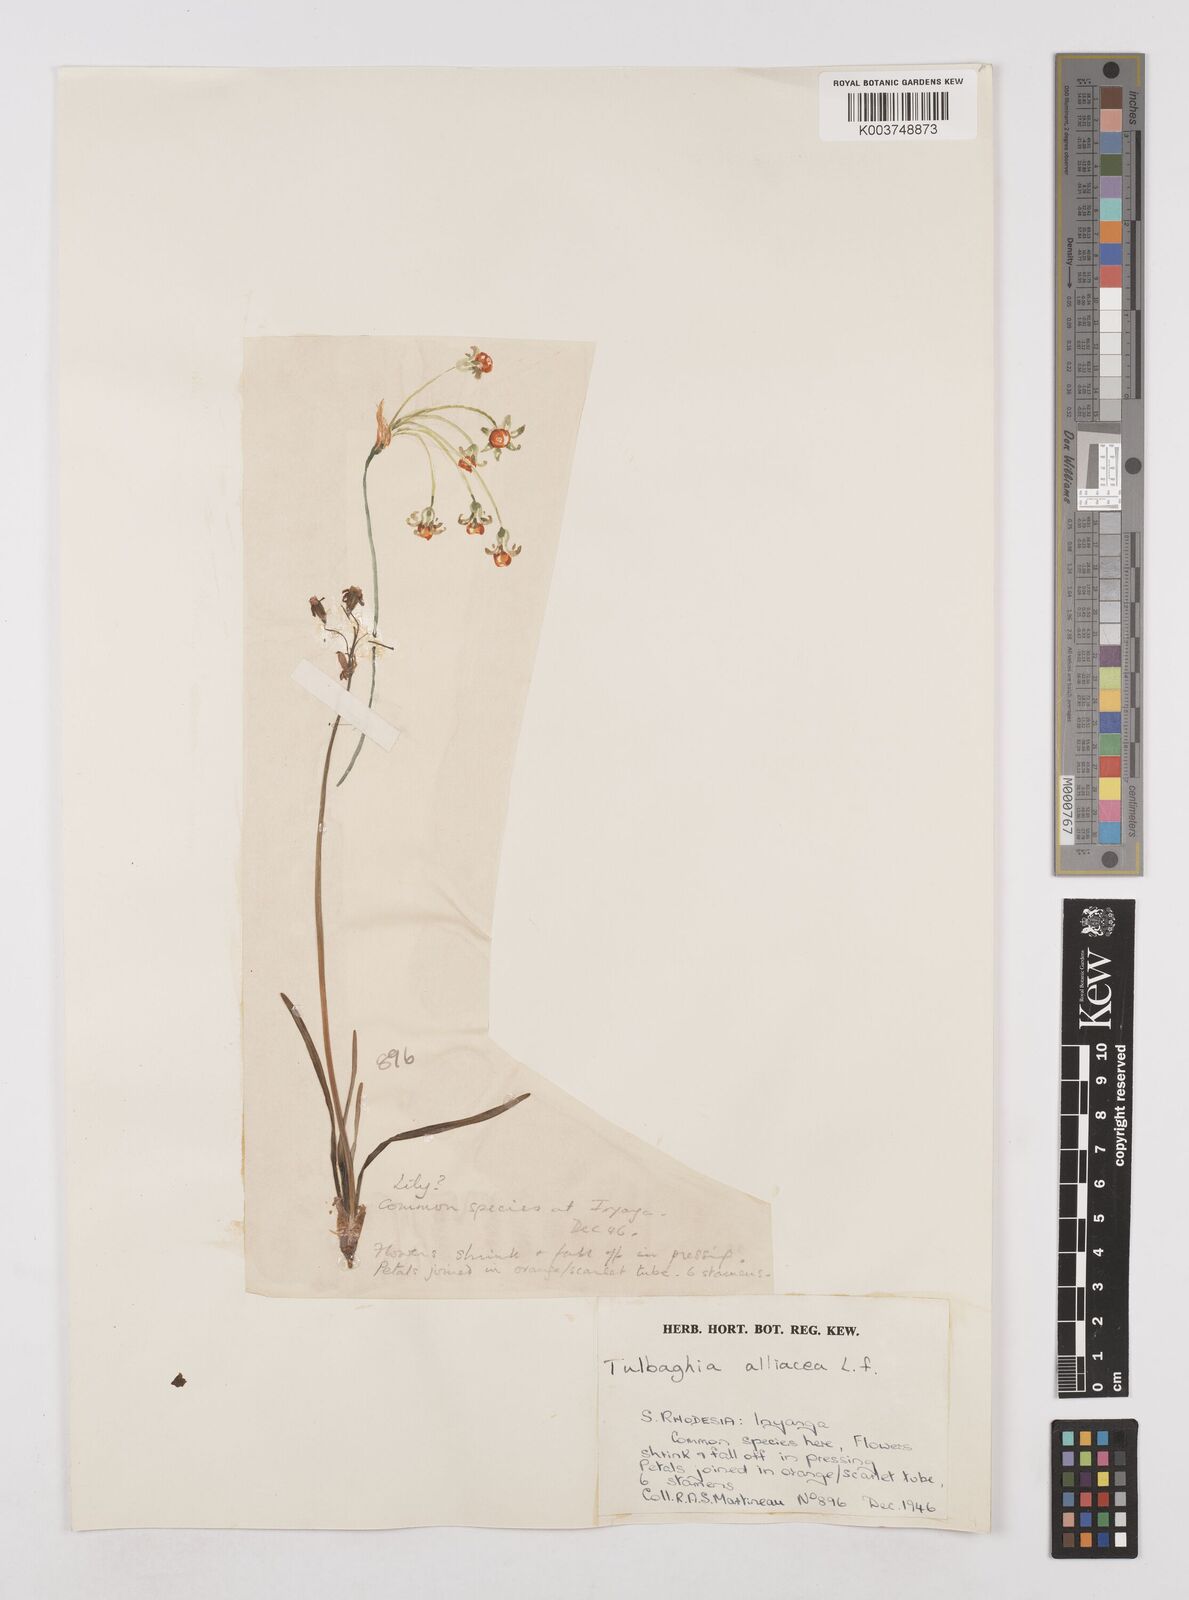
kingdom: Plantae
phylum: Tracheophyta
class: Liliopsida
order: Asparagales
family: Amaryllidaceae
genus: Tulbaghia
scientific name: Tulbaghia alliacea
